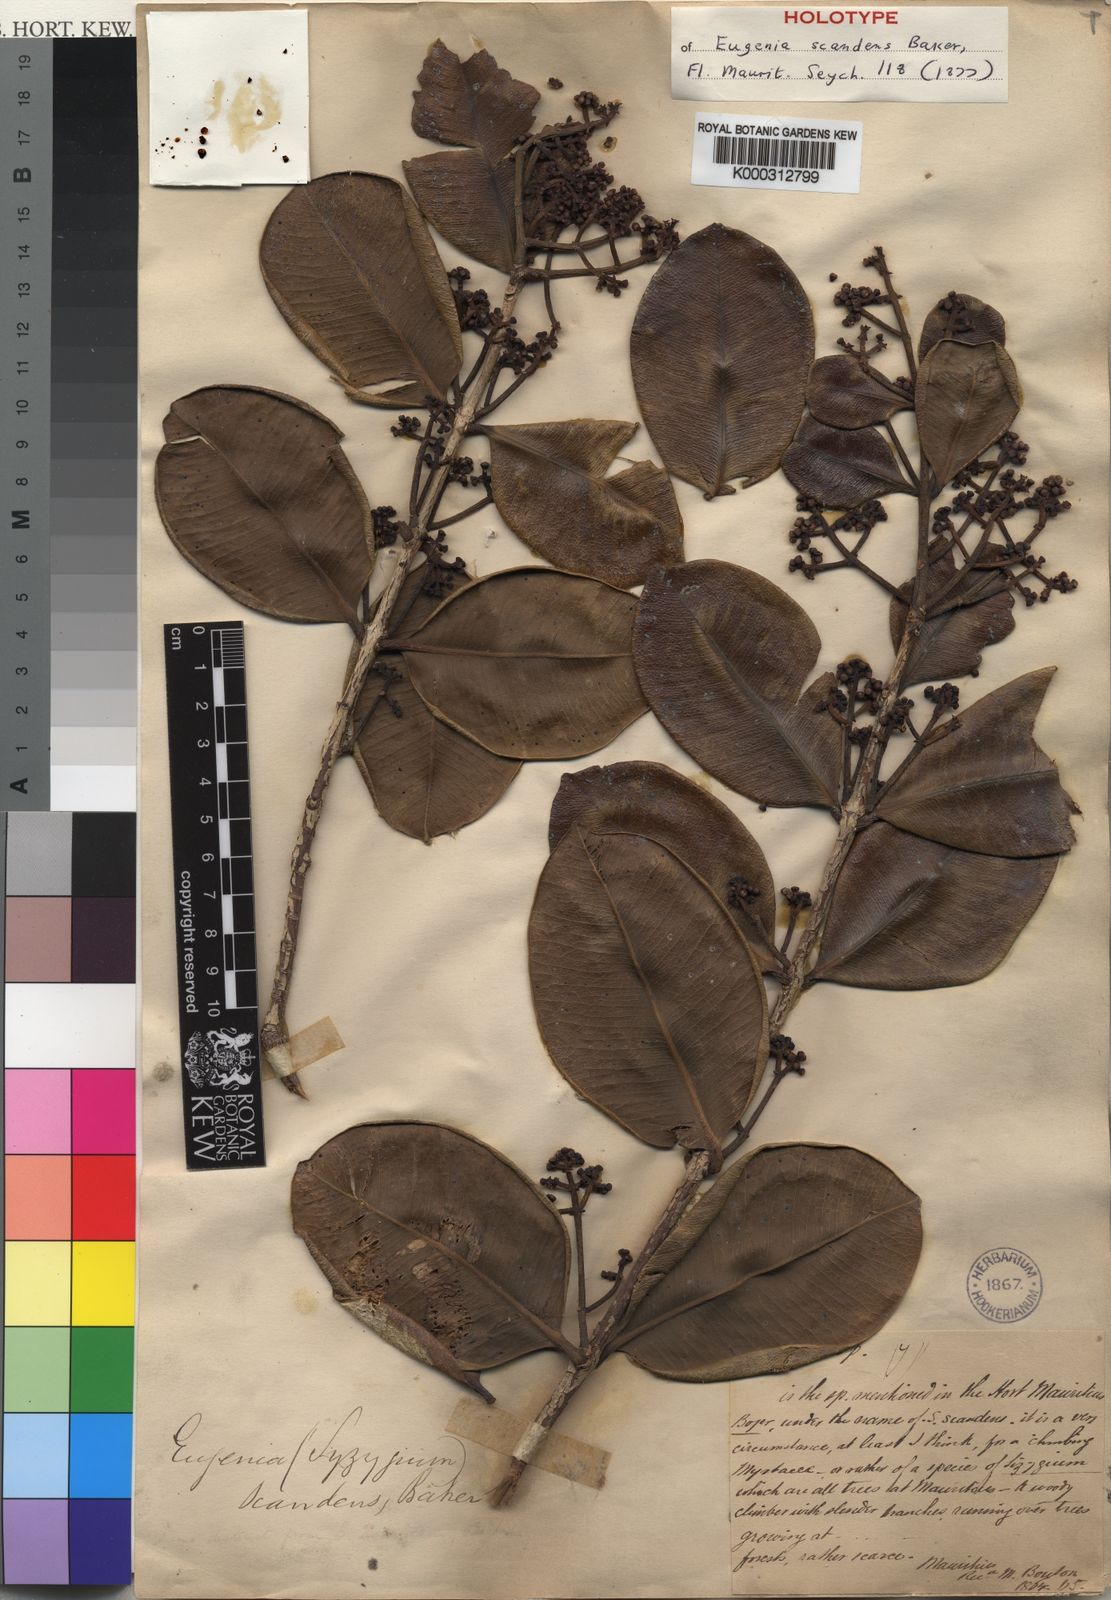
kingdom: Plantae
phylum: Tracheophyta
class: Magnoliopsida
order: Myrtales
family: Myrtaceae
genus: Syzygium
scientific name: Syzygium
